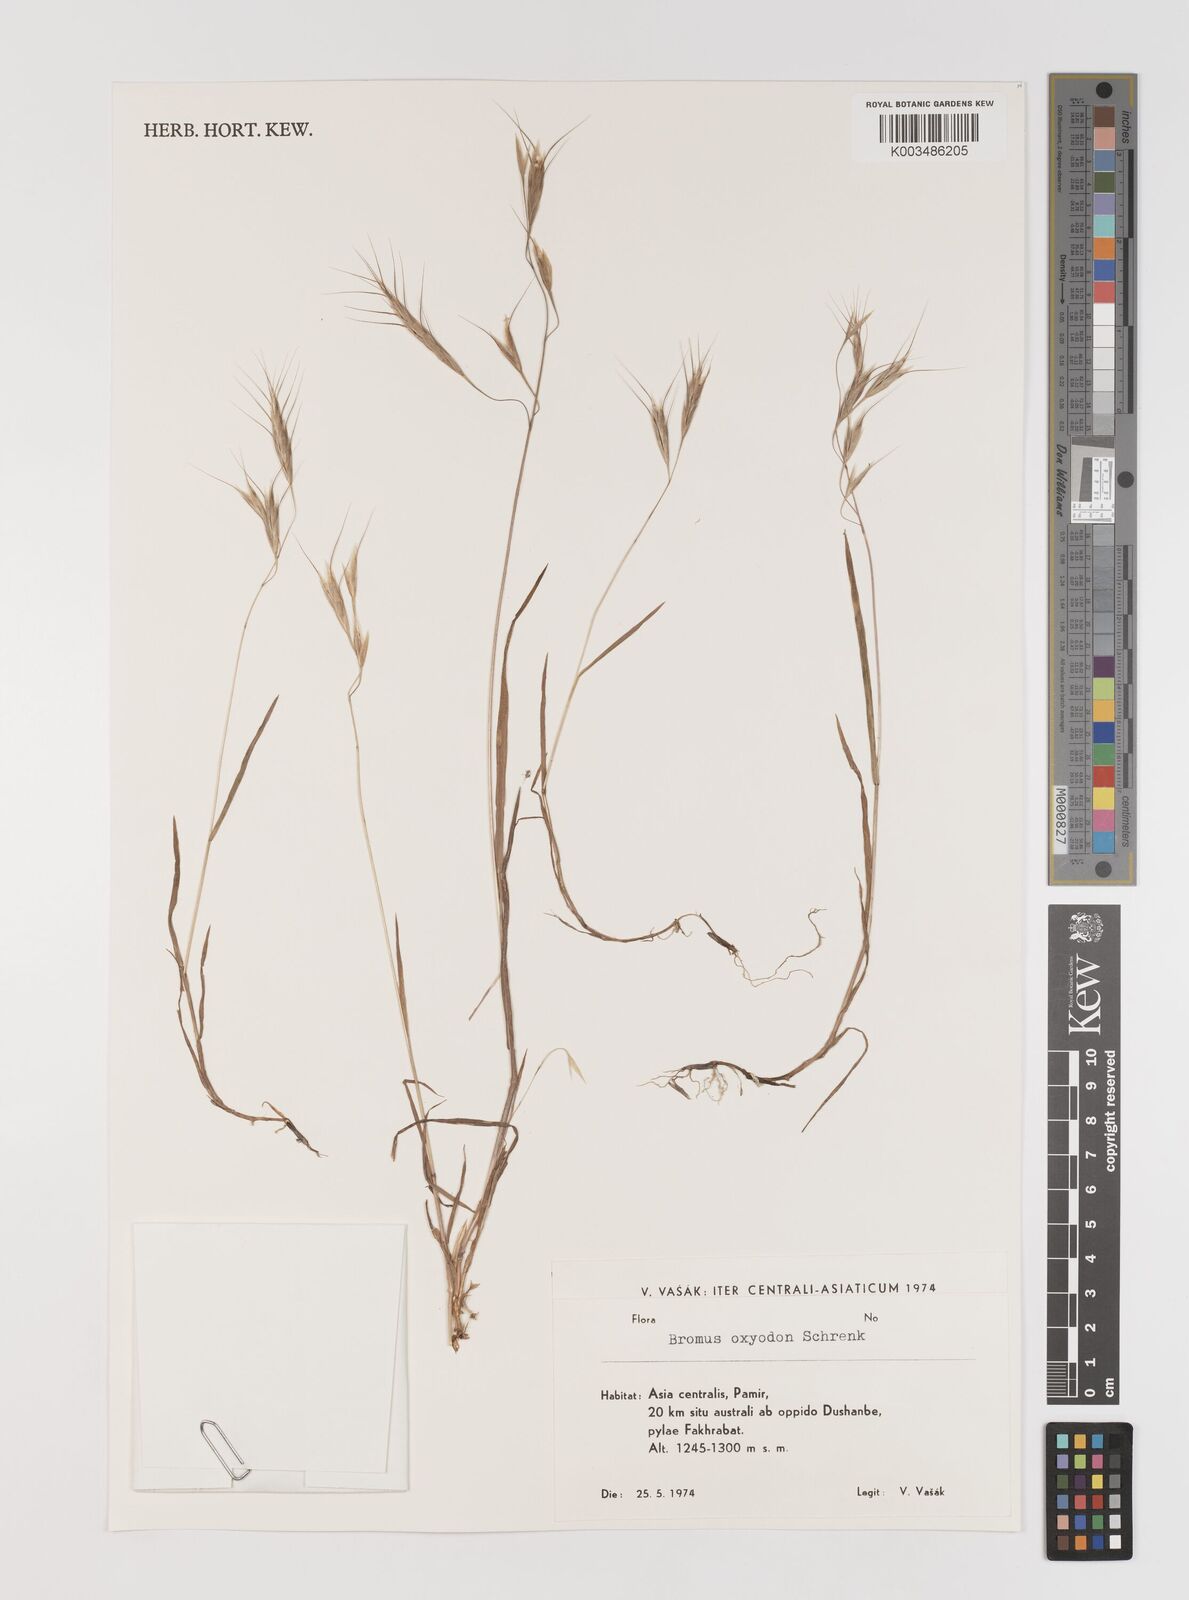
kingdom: Plantae
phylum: Tracheophyta
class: Liliopsida
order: Poales
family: Poaceae
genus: Bromus
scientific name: Bromus oxyodon
